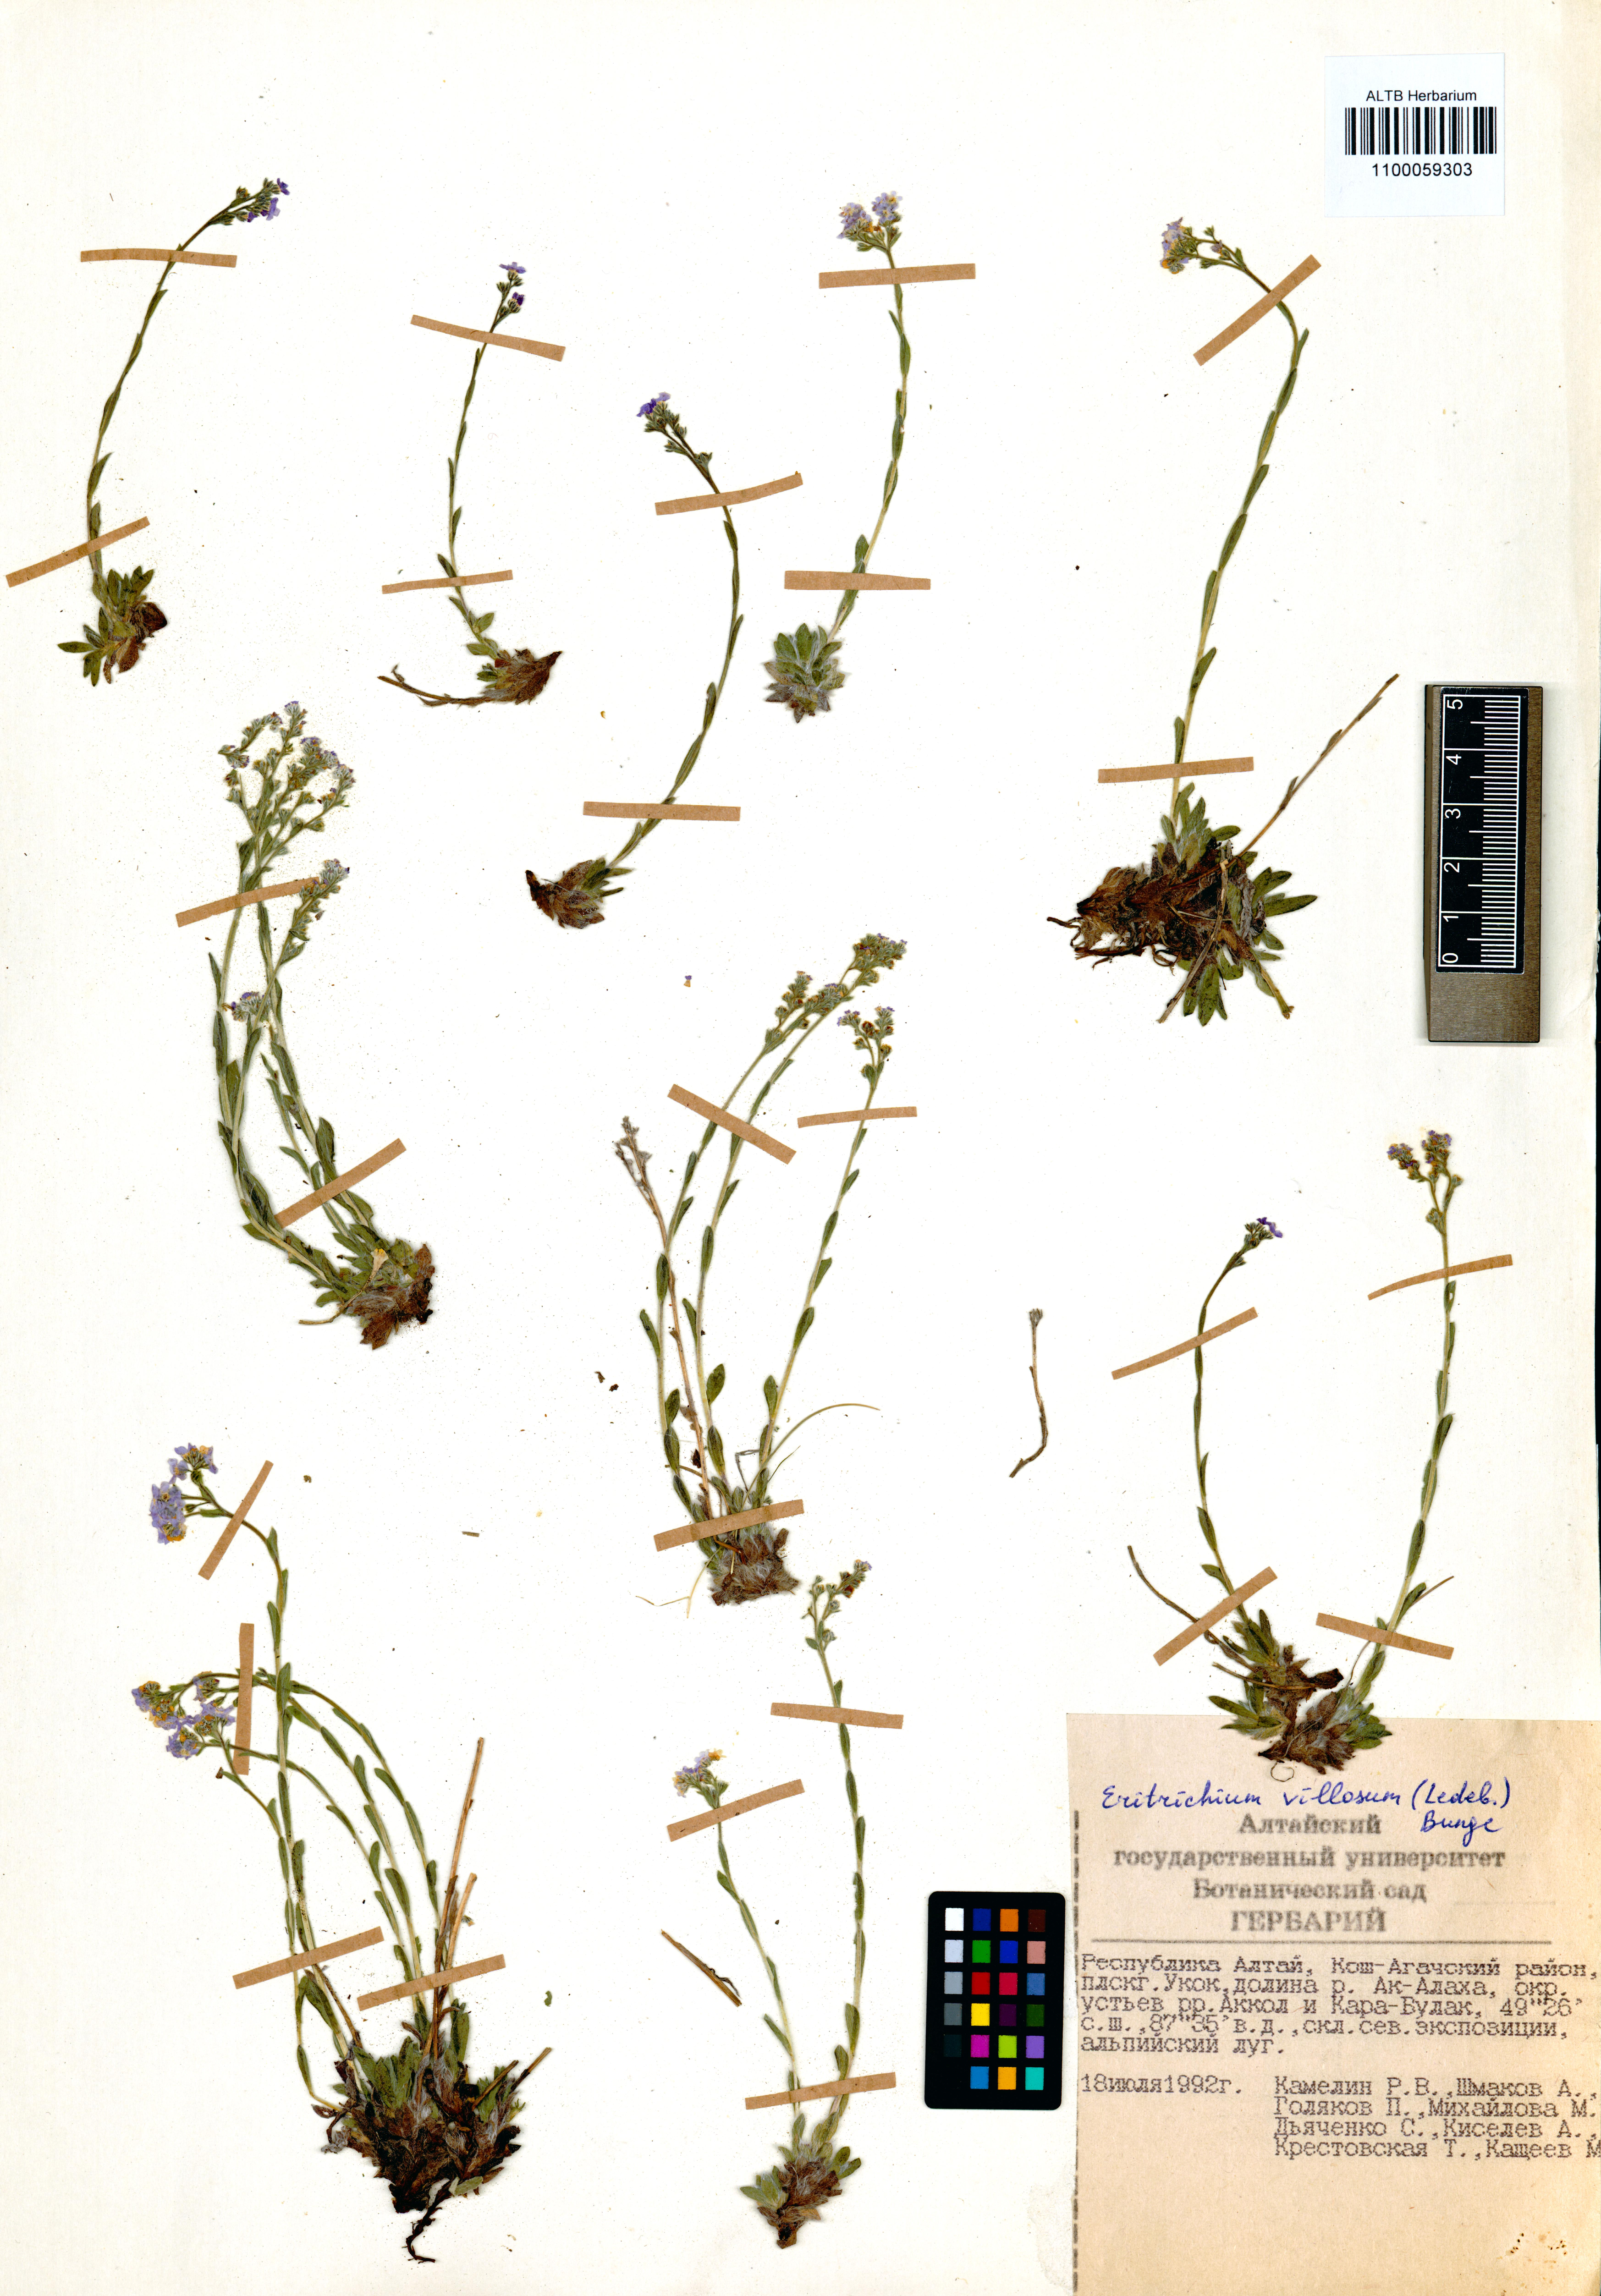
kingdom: Plantae
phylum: Tracheophyta
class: Magnoliopsida
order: Boraginales
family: Boraginaceae
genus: Eritrichium
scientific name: Eritrichium villosum
